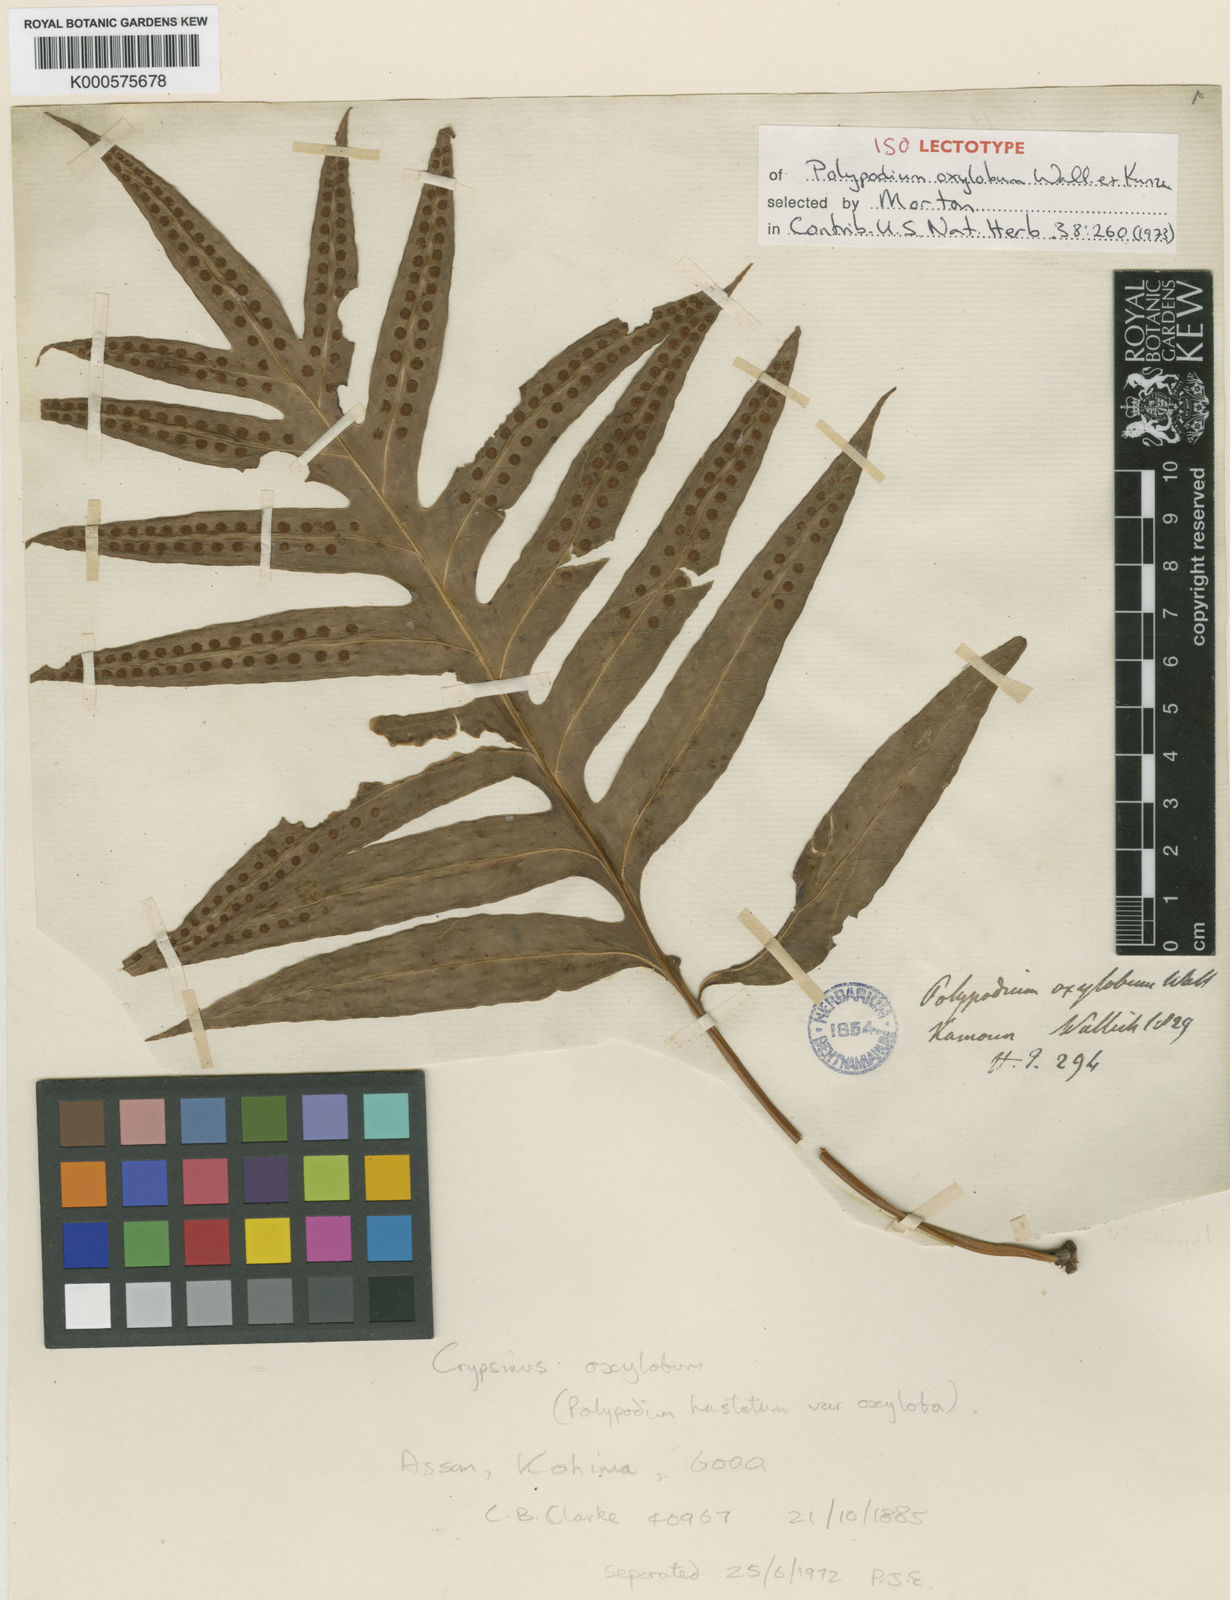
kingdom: Plantae
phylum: Tracheophyta
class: Polypodiopsida
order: Polypodiales
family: Polypodiaceae
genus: Selliguea
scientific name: Selliguea oxyloba
